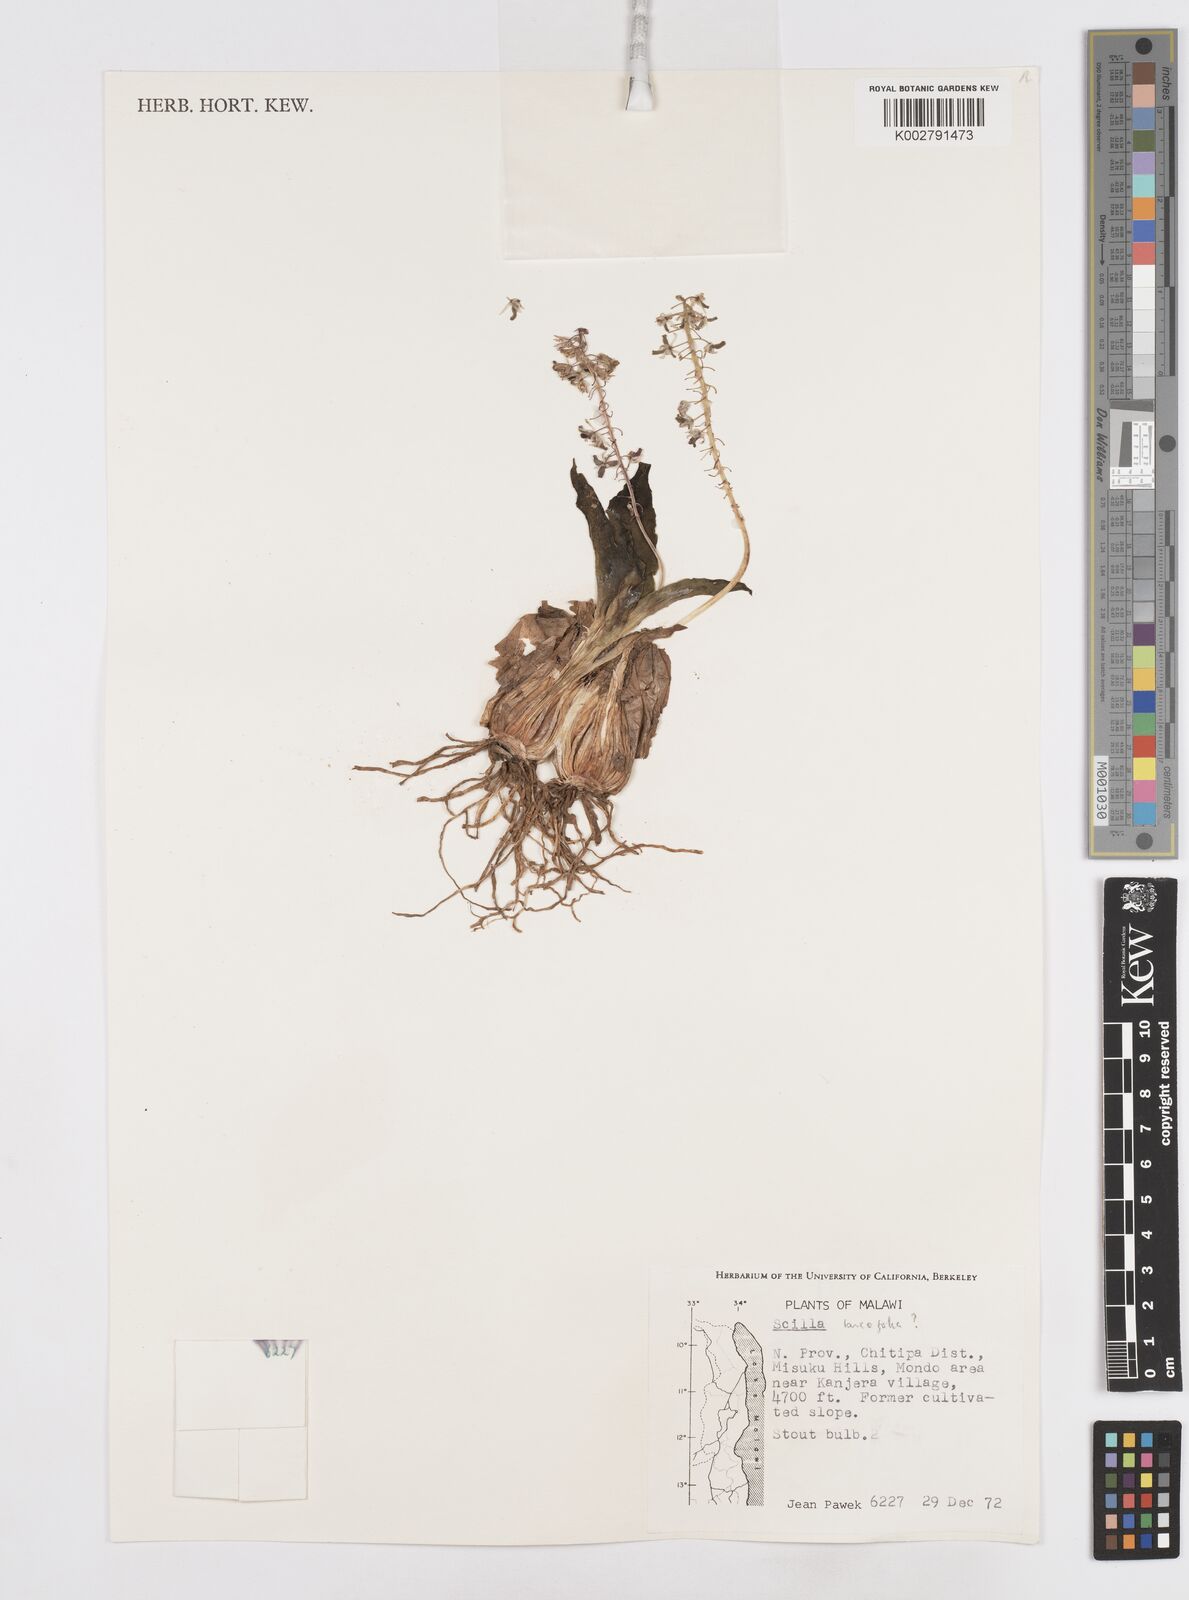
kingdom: Plantae
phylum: Tracheophyta
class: Liliopsida
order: Asparagales
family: Asparagaceae
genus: Scilla
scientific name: Scilla
